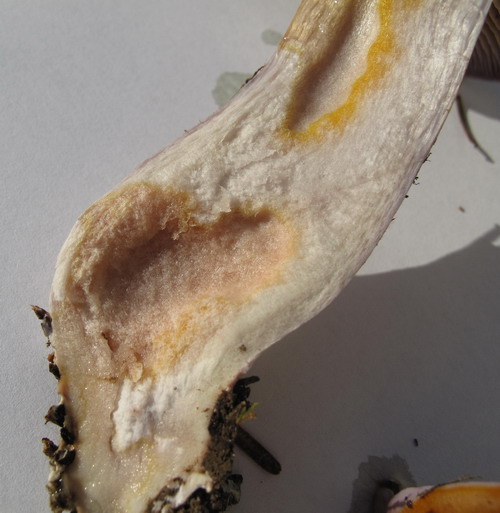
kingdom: Fungi
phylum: Basidiomycota
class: Agaricomycetes
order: Agaricales
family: Cortinariaceae
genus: Phlegmacium
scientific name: Phlegmacium eliae
